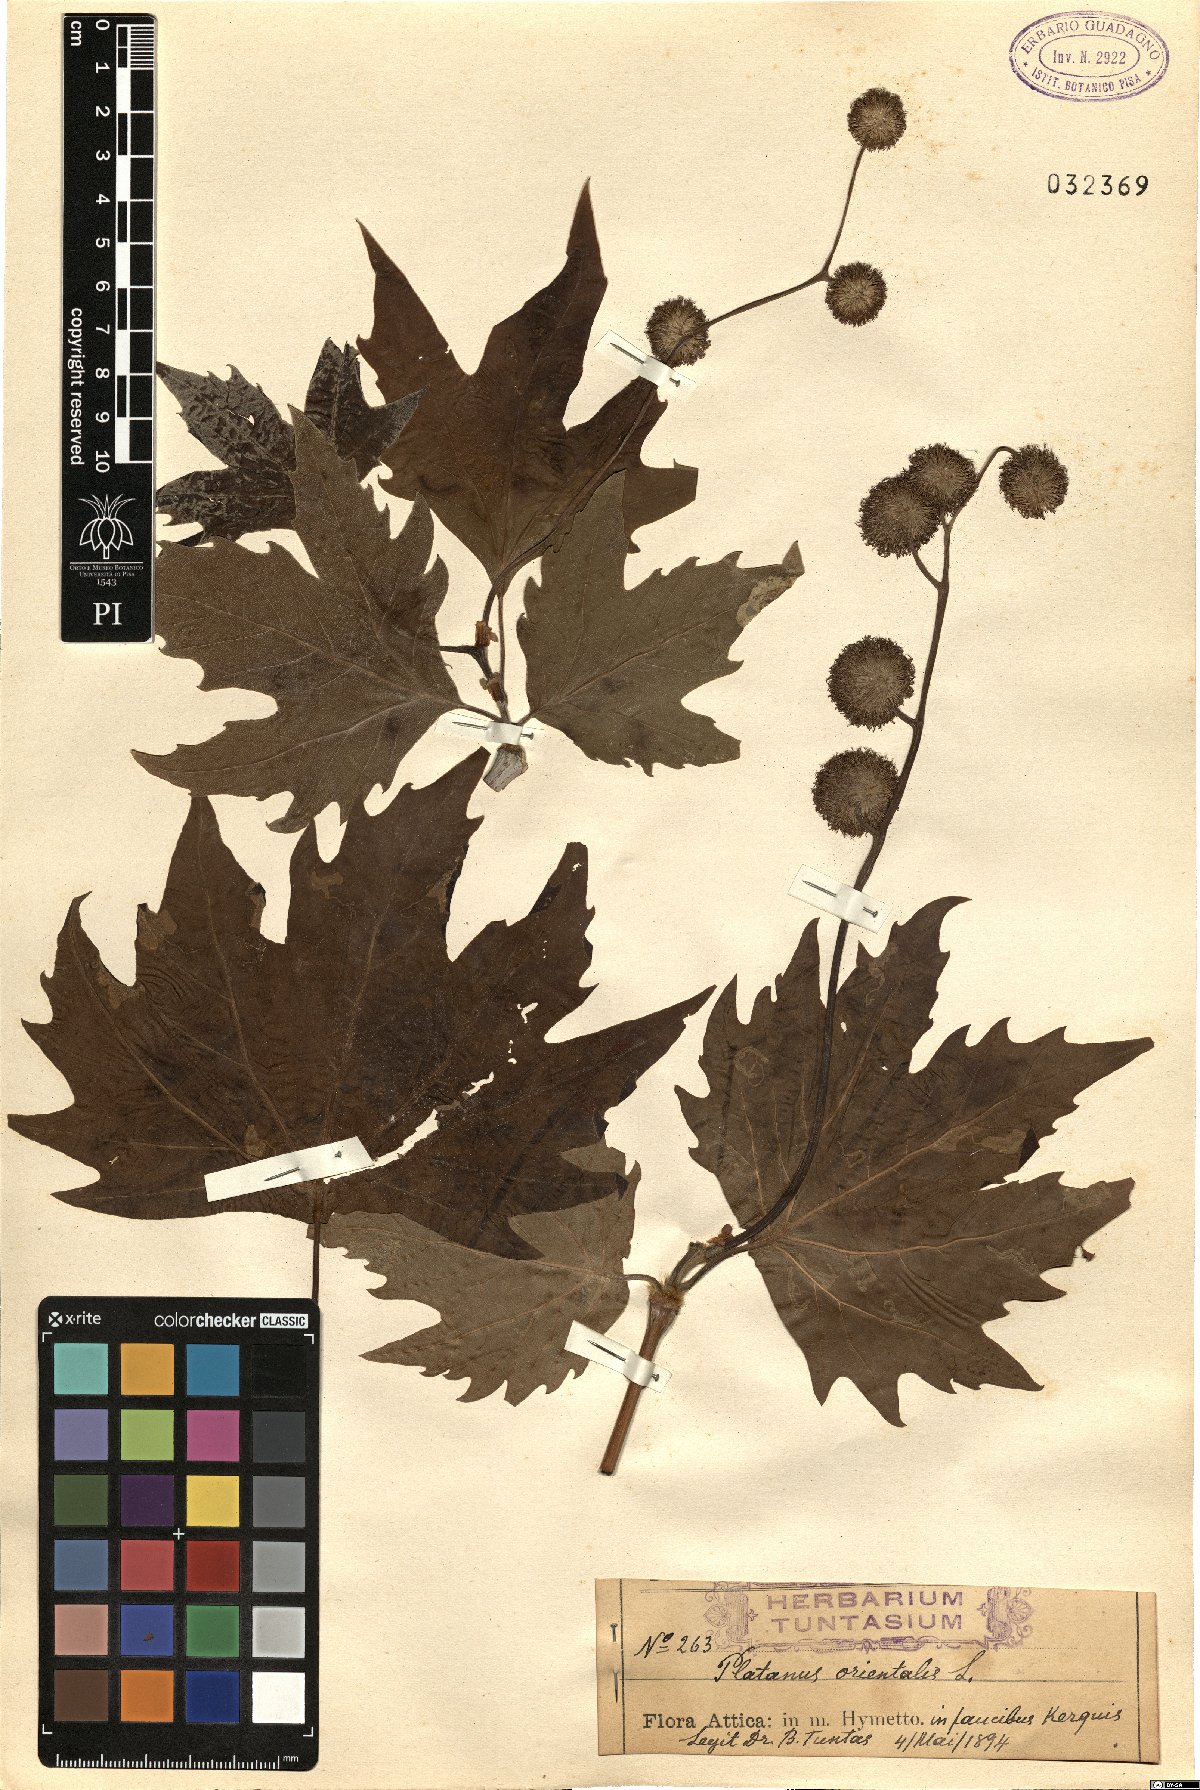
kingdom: Plantae
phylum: Tracheophyta
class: Magnoliopsida
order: Proteales
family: Platanaceae
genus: Platanus
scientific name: Platanus orientalis
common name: Oriental plane
